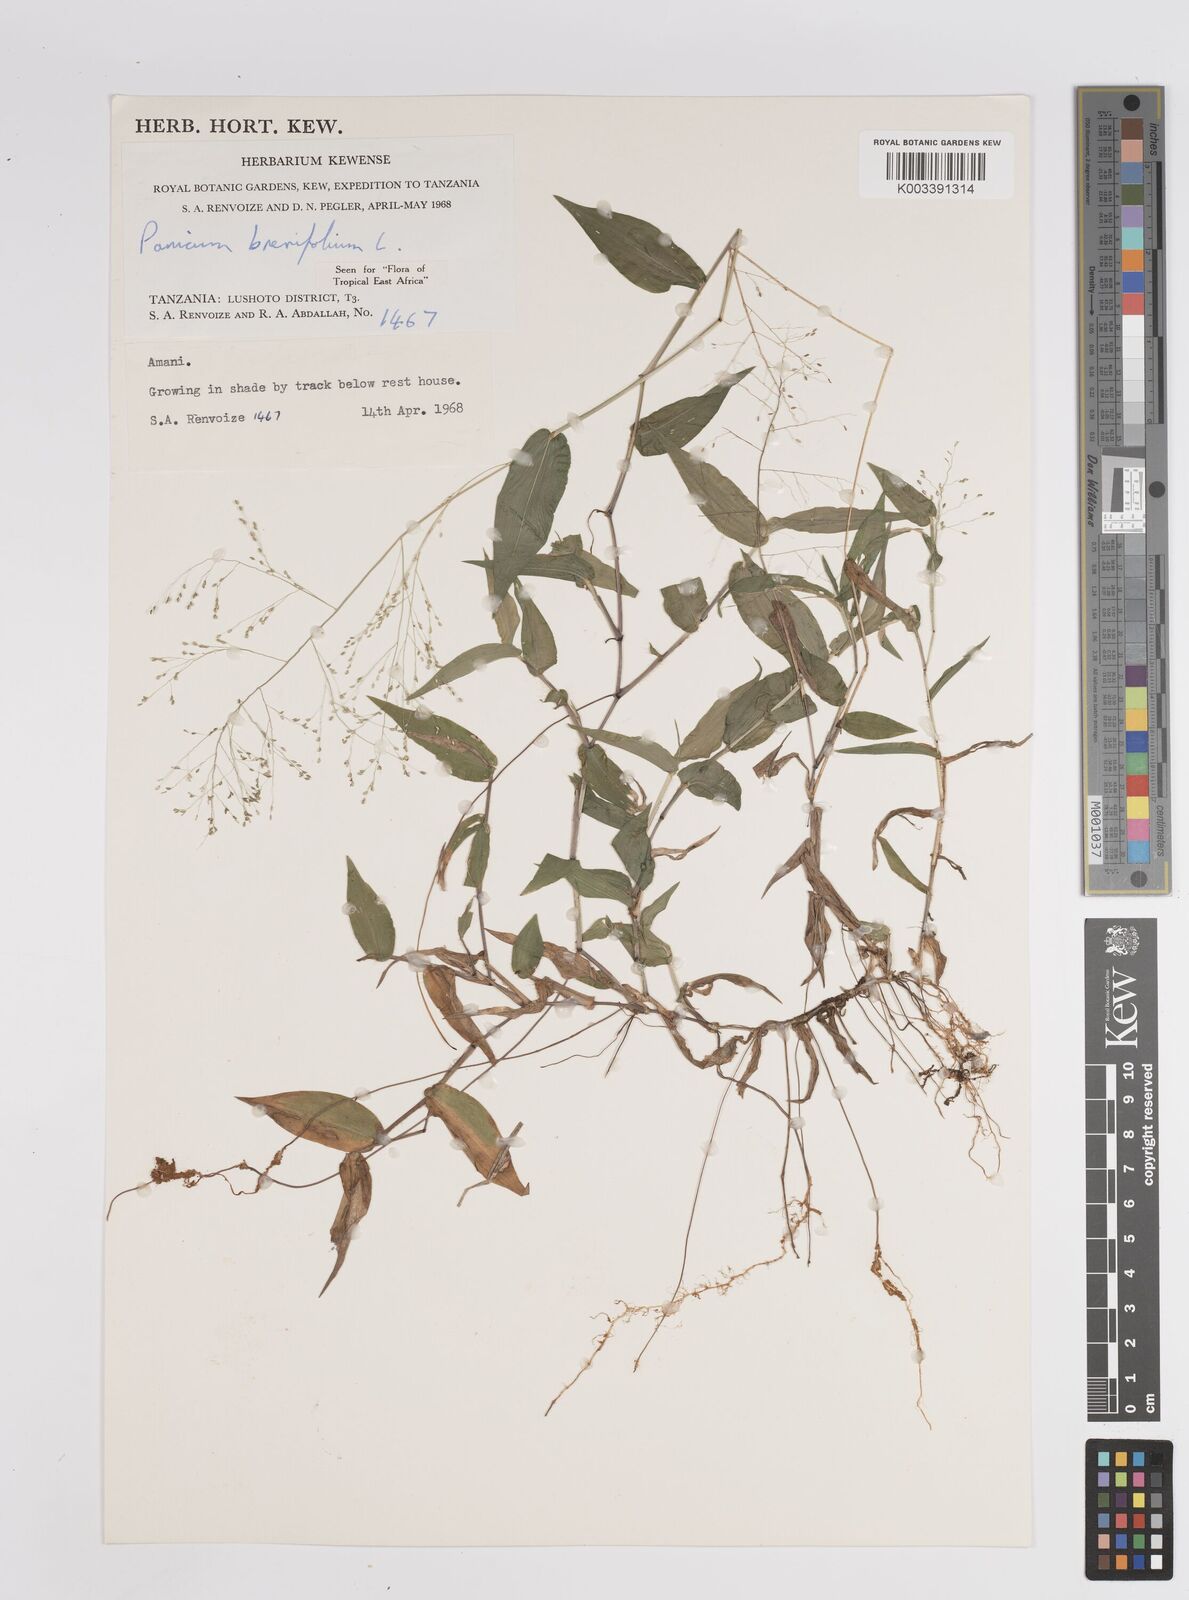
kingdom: Plantae
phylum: Tracheophyta
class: Liliopsida
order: Poales
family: Poaceae
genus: Panicum
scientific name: Panicum brevifolium
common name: Shortleaf panic grass
